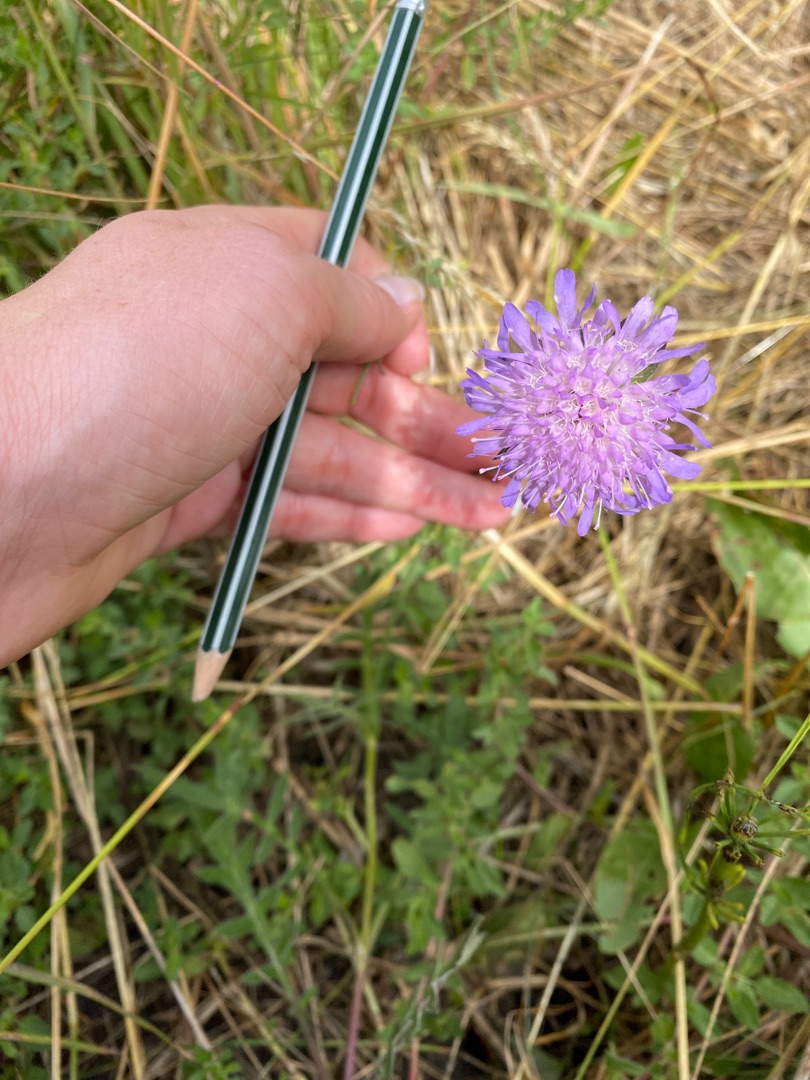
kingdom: Plantae
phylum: Tracheophyta
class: Magnoliopsida
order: Dipsacales
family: Caprifoliaceae
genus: Knautia
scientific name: Knautia arvensis
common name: Blåhat
